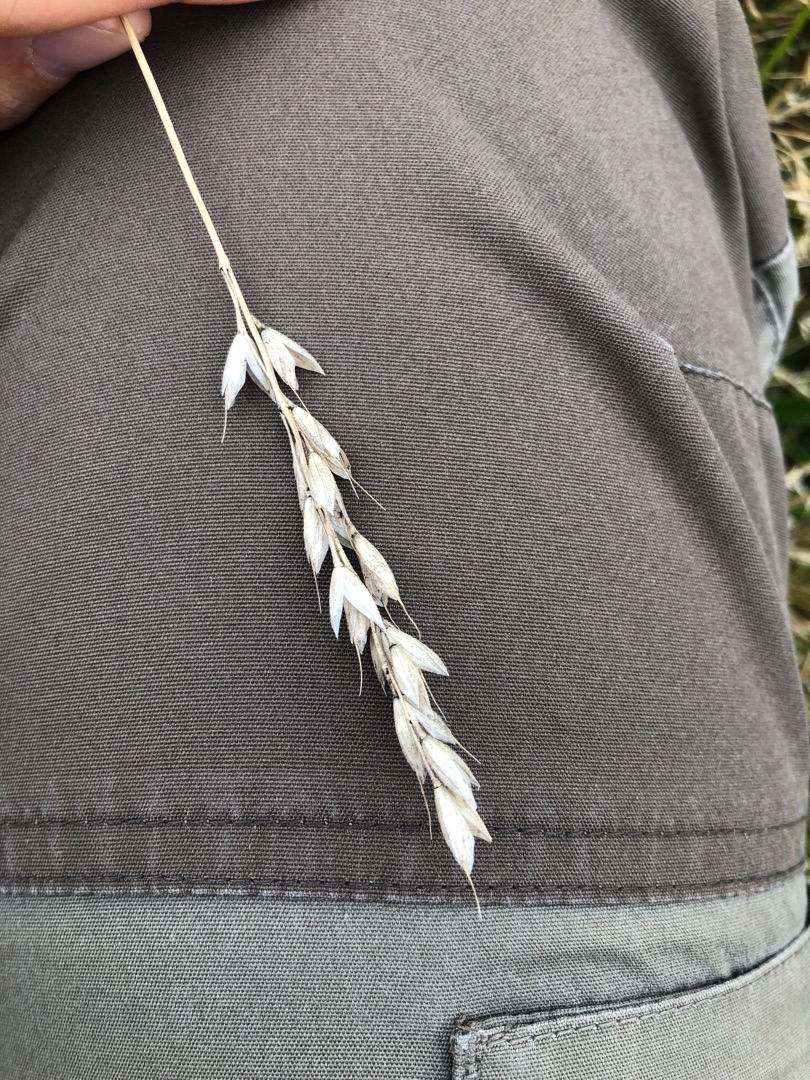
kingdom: Plantae
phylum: Tracheophyta
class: Liliopsida
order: Poales
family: Poaceae
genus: Bromus
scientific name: Bromus hordeaceus
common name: Blød hejre
